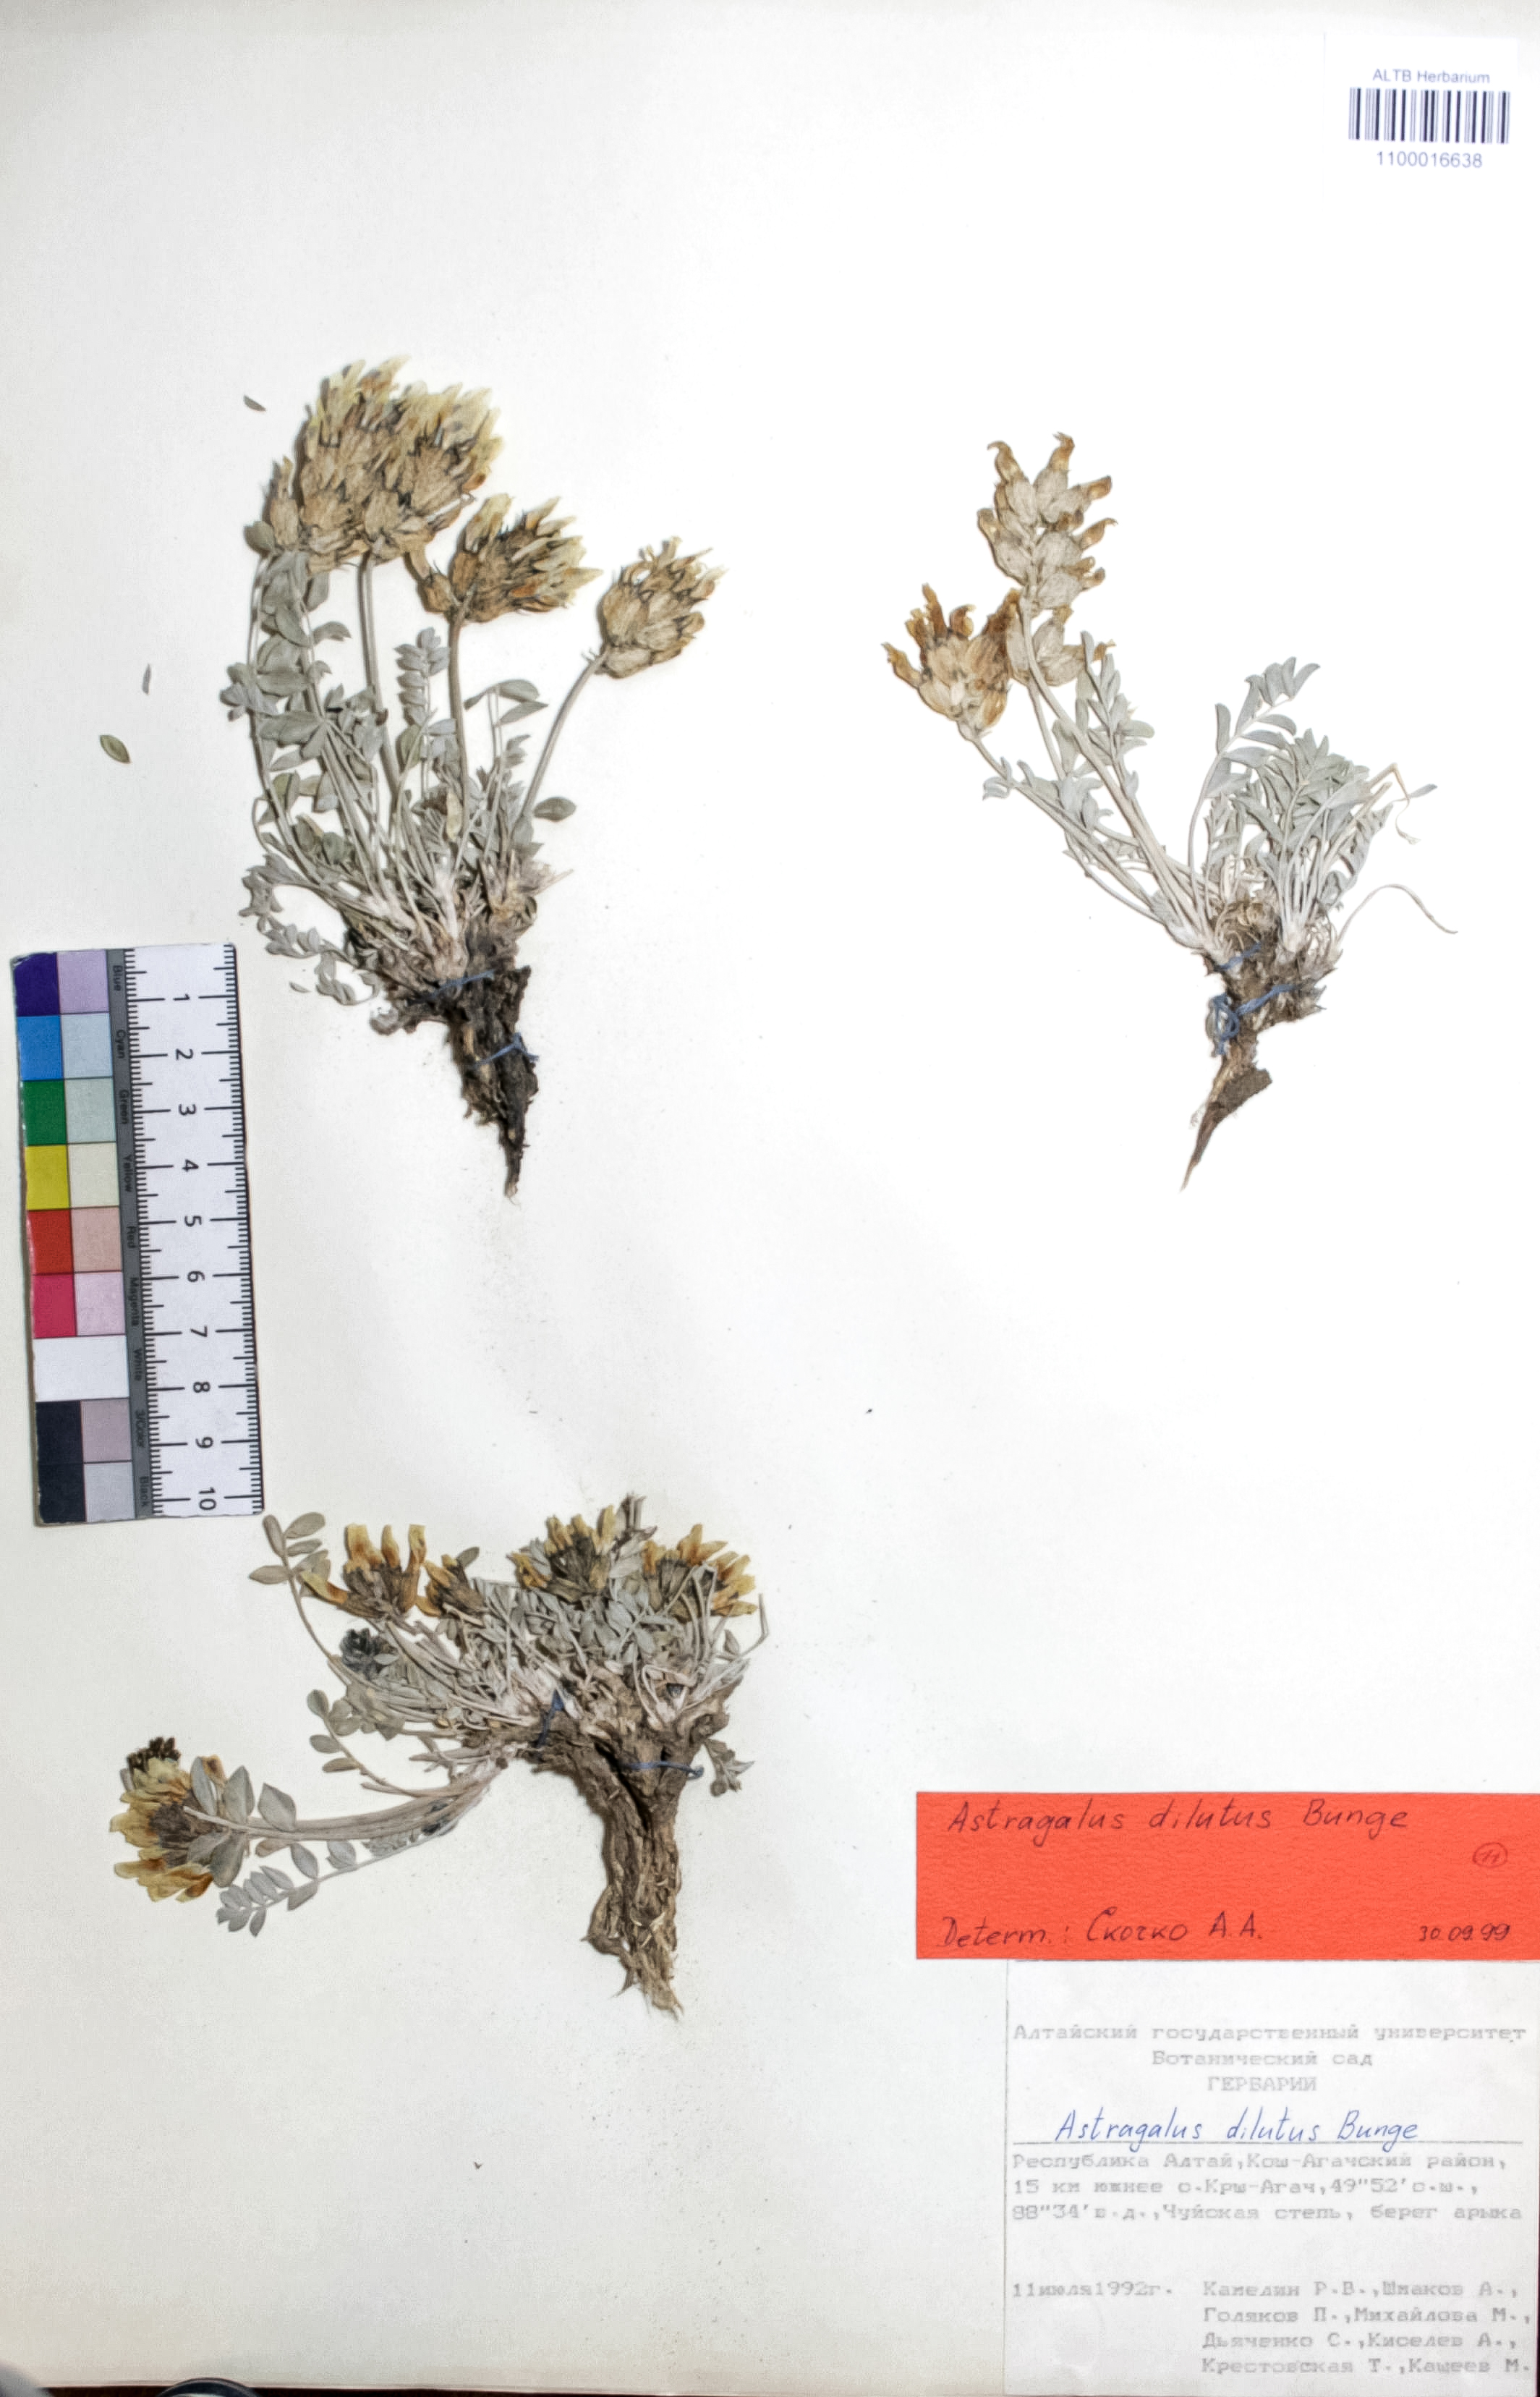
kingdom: Plantae
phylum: Tracheophyta
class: Magnoliopsida
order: Fabales
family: Fabaceae
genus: Astragalus
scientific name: Astragalus dilutus
